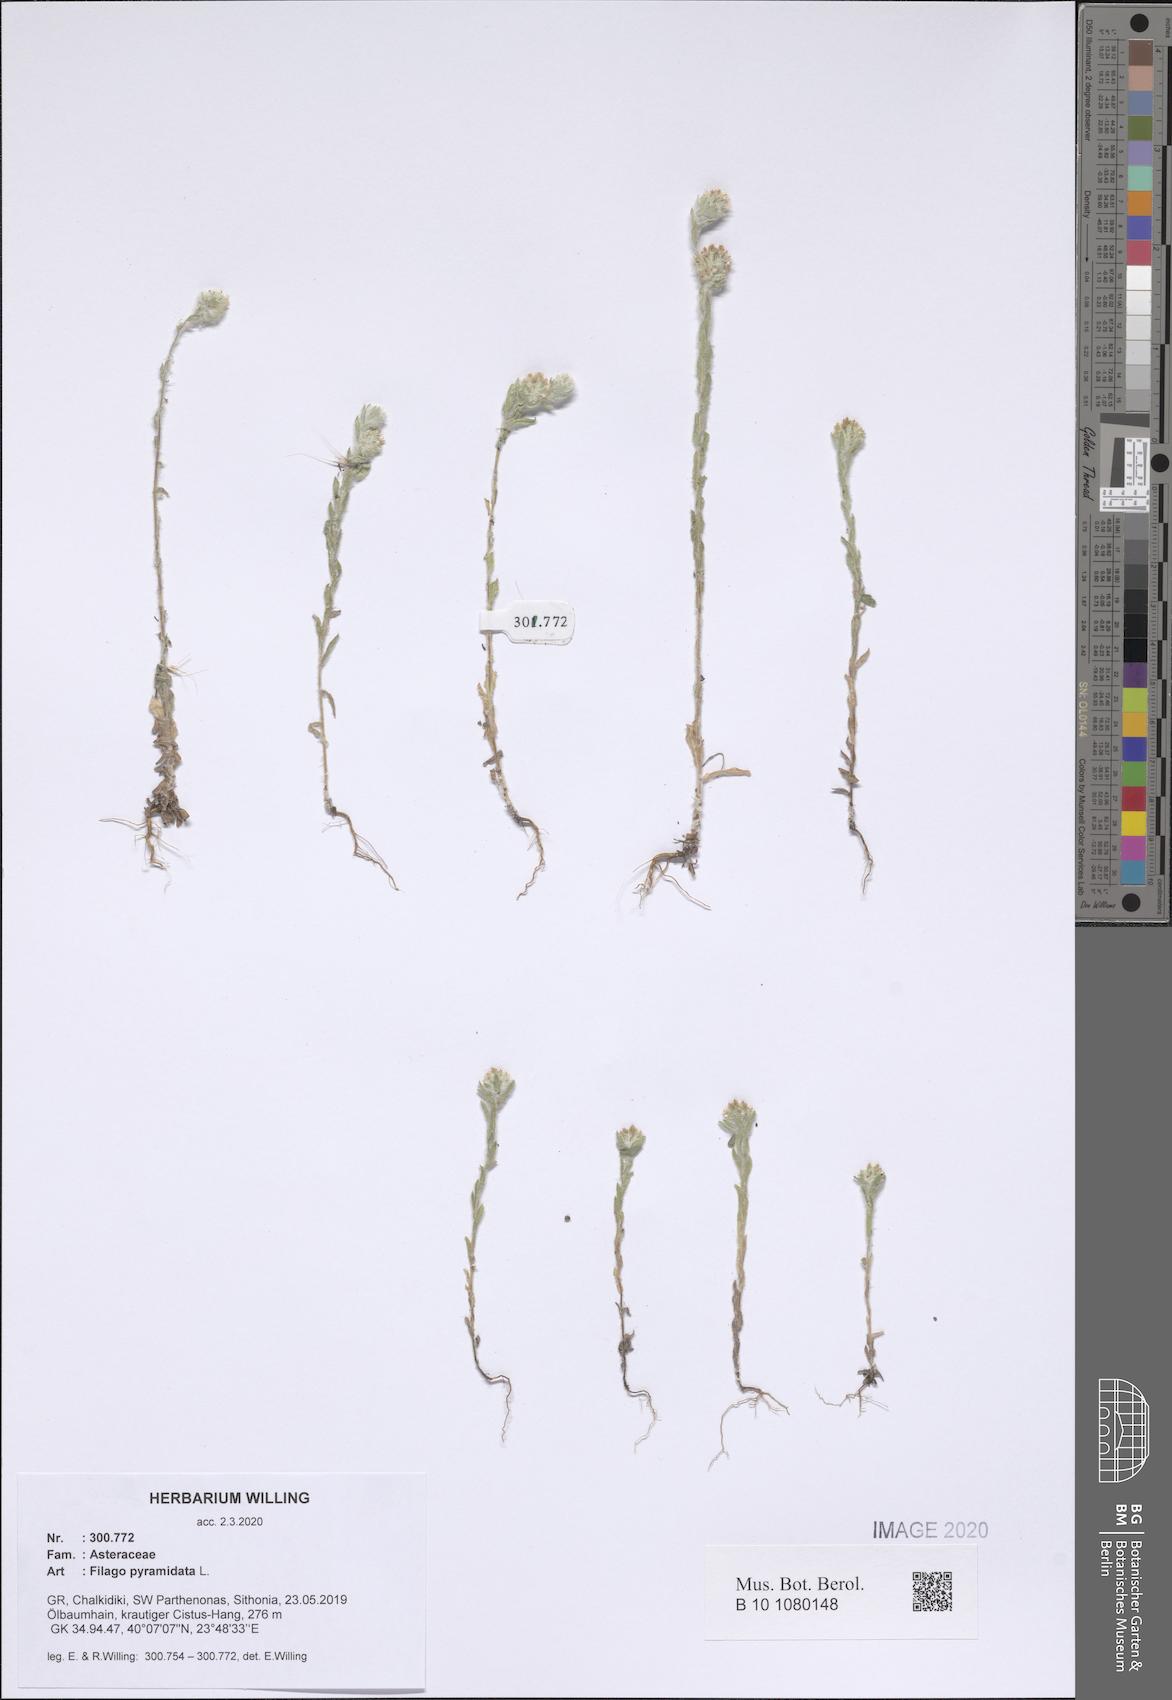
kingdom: Plantae
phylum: Tracheophyta
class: Magnoliopsida
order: Asterales
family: Asteraceae
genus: Filago
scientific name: Filago pyramidata
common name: Broad-leaved cudweed
